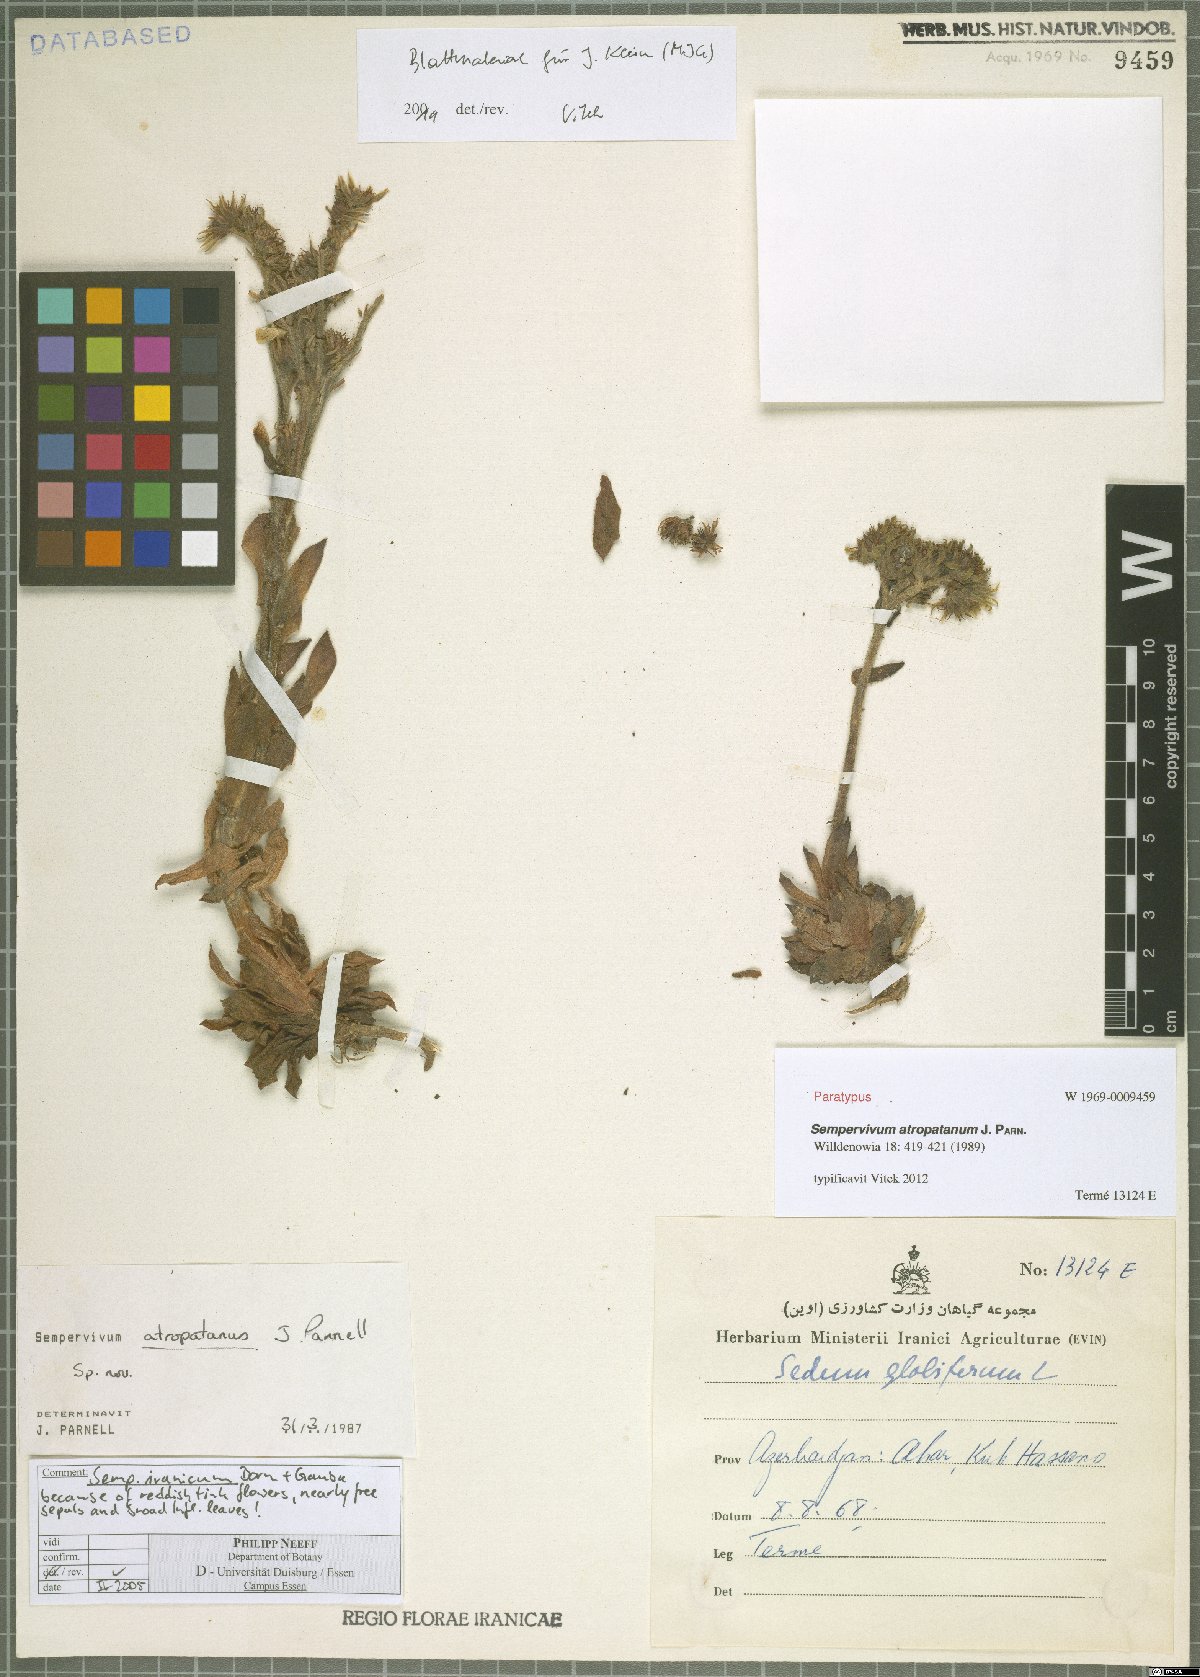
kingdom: Plantae
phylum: Tracheophyta
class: Magnoliopsida
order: Saxifragales
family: Crassulaceae
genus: Sempervivum
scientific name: Sempervivum iranicum
